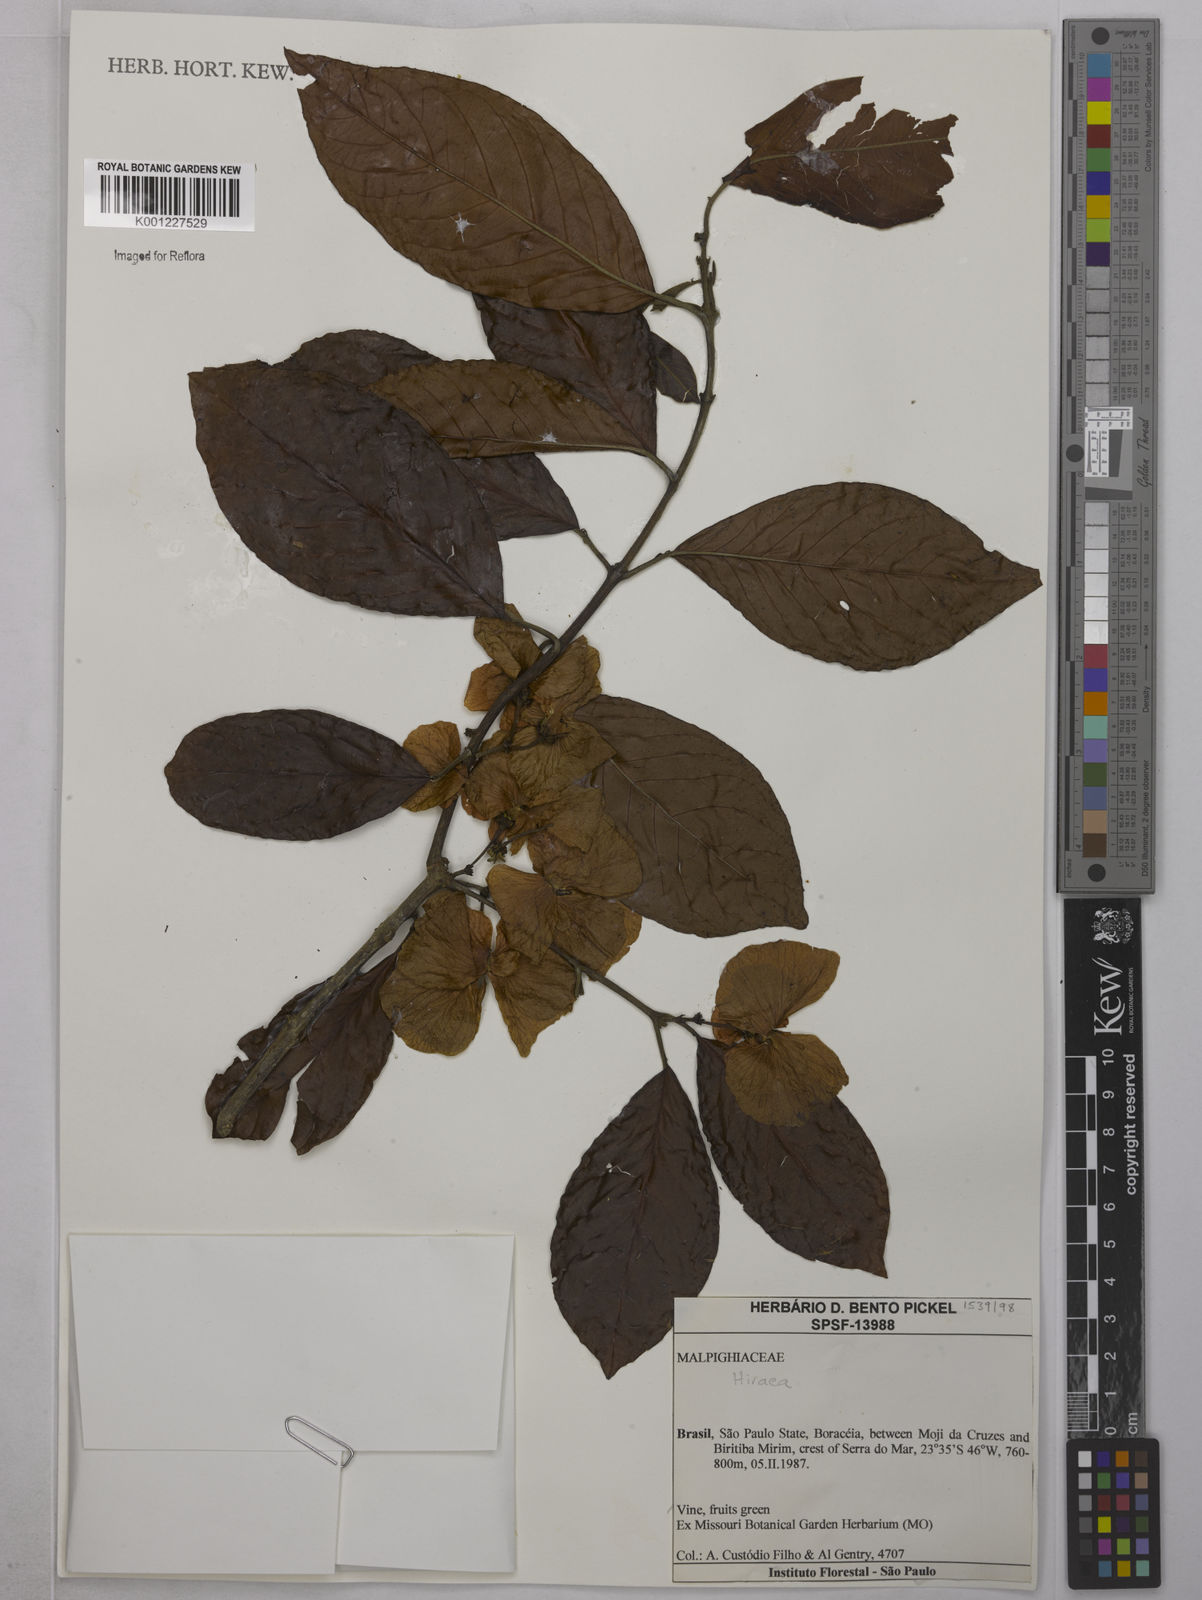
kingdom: Plantae
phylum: Tracheophyta
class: Magnoliopsida
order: Malpighiales
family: Malpighiaceae
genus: Hiraea
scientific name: Hiraea
